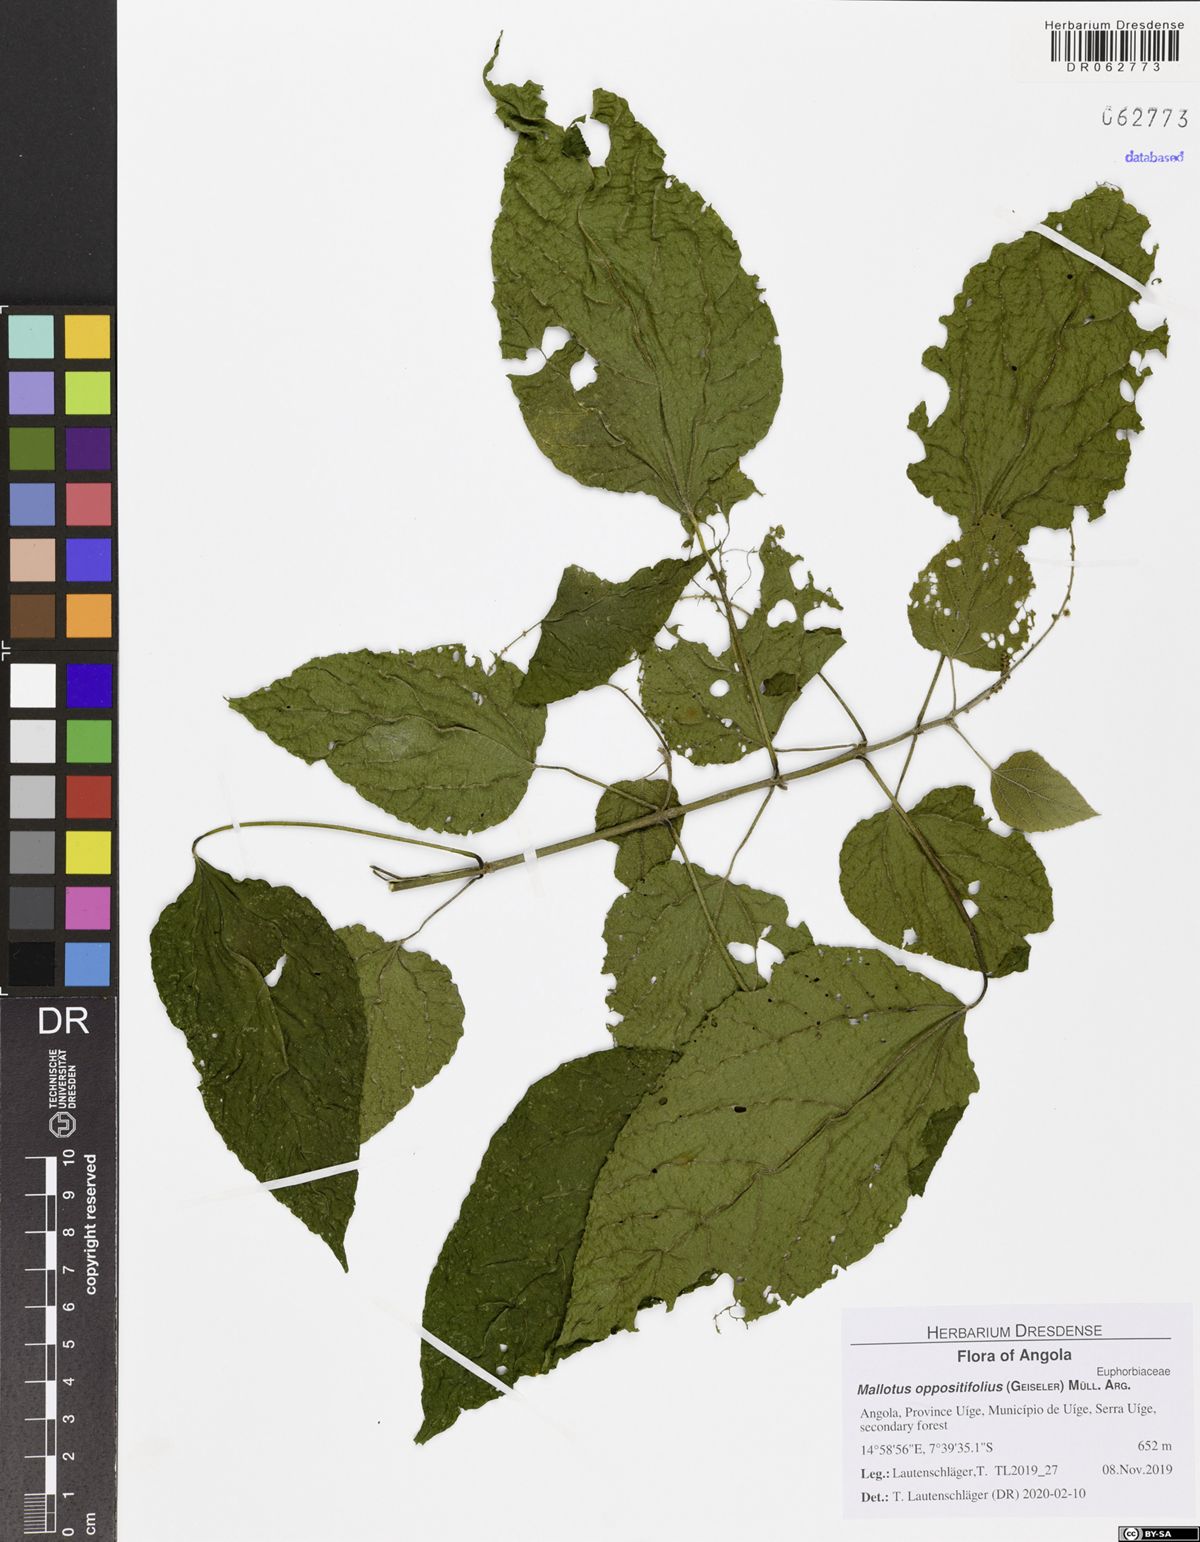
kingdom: Plantae
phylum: Tracheophyta
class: Magnoliopsida
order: Malpighiales
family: Euphorbiaceae
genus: Mallotus
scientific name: Mallotus oppositifolius
